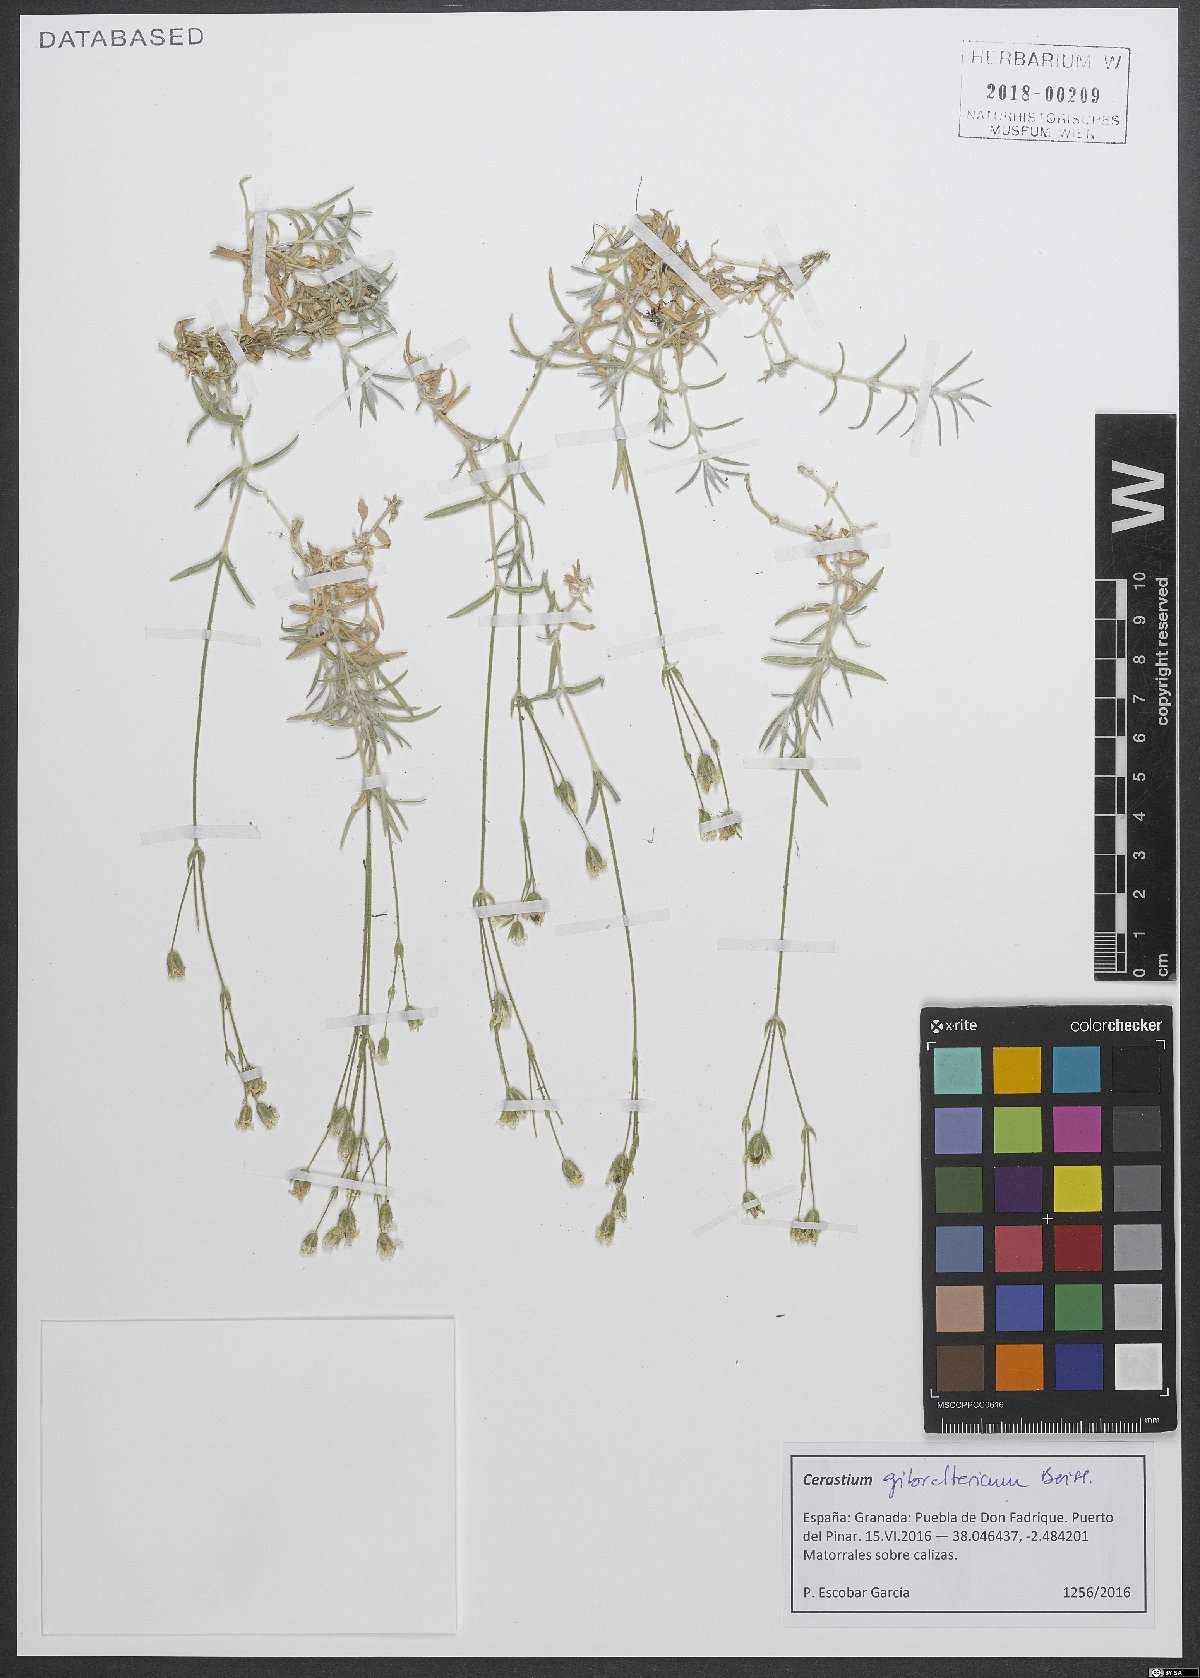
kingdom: Plantae
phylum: Tracheophyta
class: Magnoliopsida
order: Caryophyllales
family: Caryophyllaceae
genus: Cerastium
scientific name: Cerastium gibraltaricum
